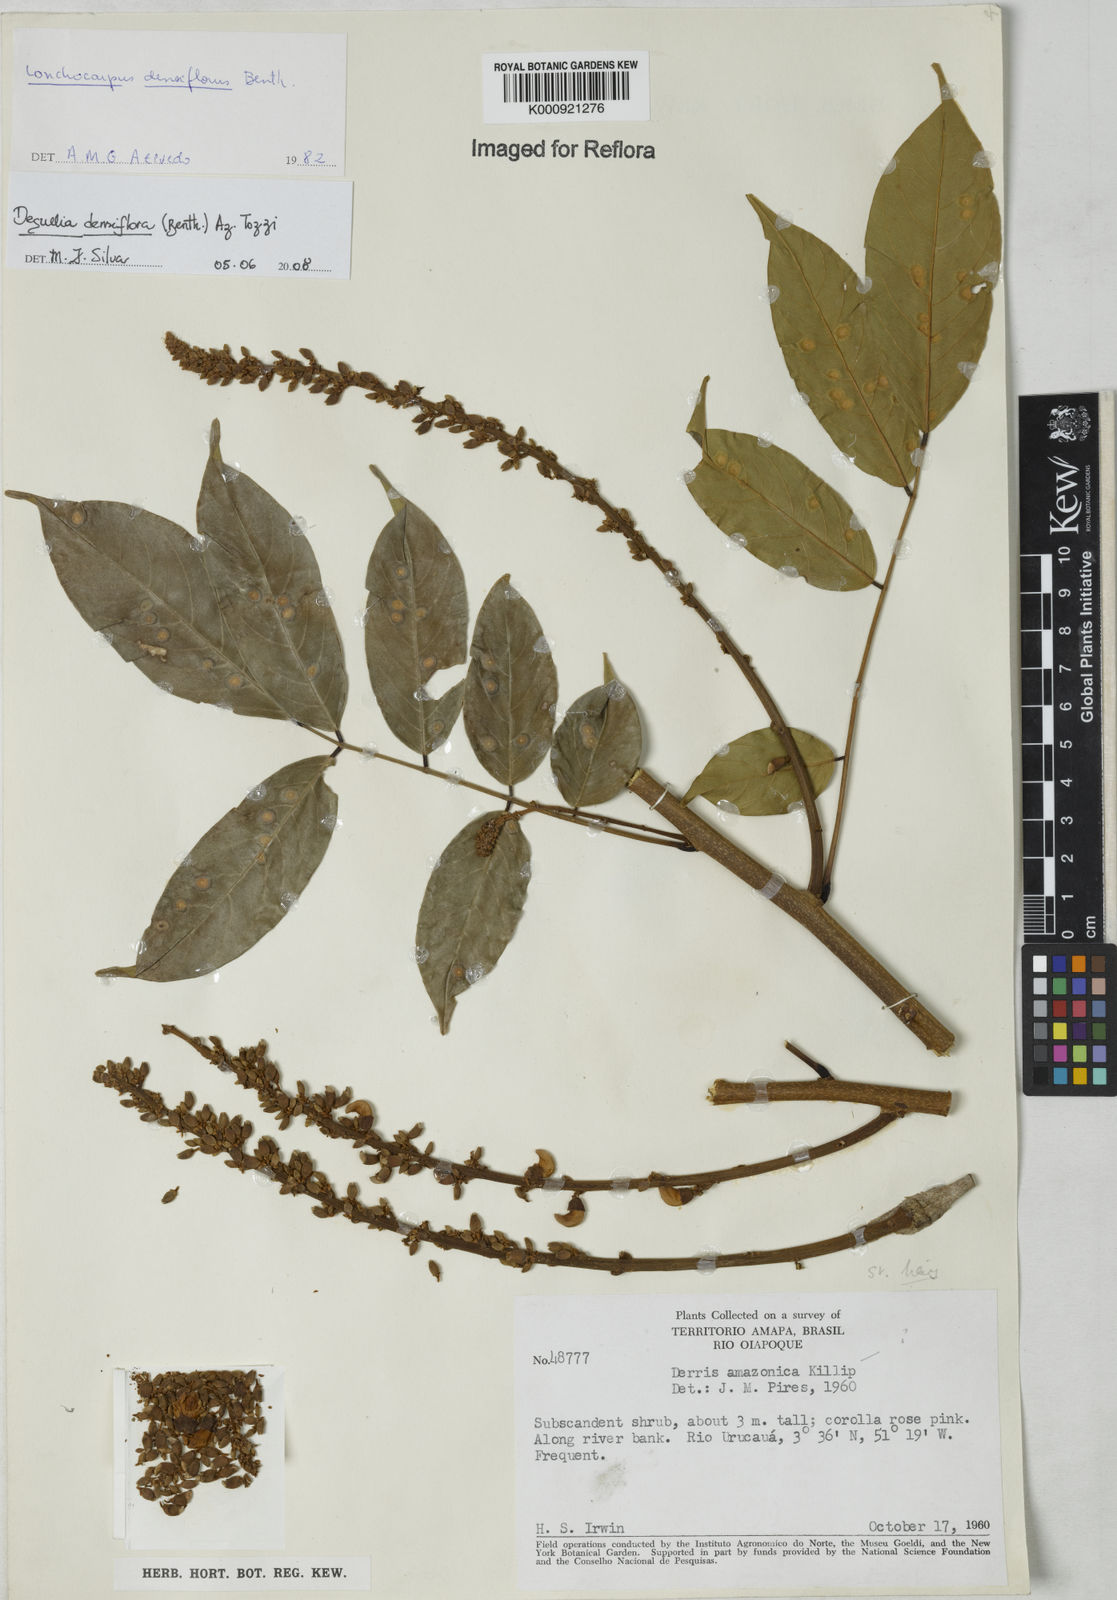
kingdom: Plantae
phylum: Tracheophyta
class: Magnoliopsida
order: Fabales
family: Fabaceae
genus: Deguelia
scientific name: Deguelia
